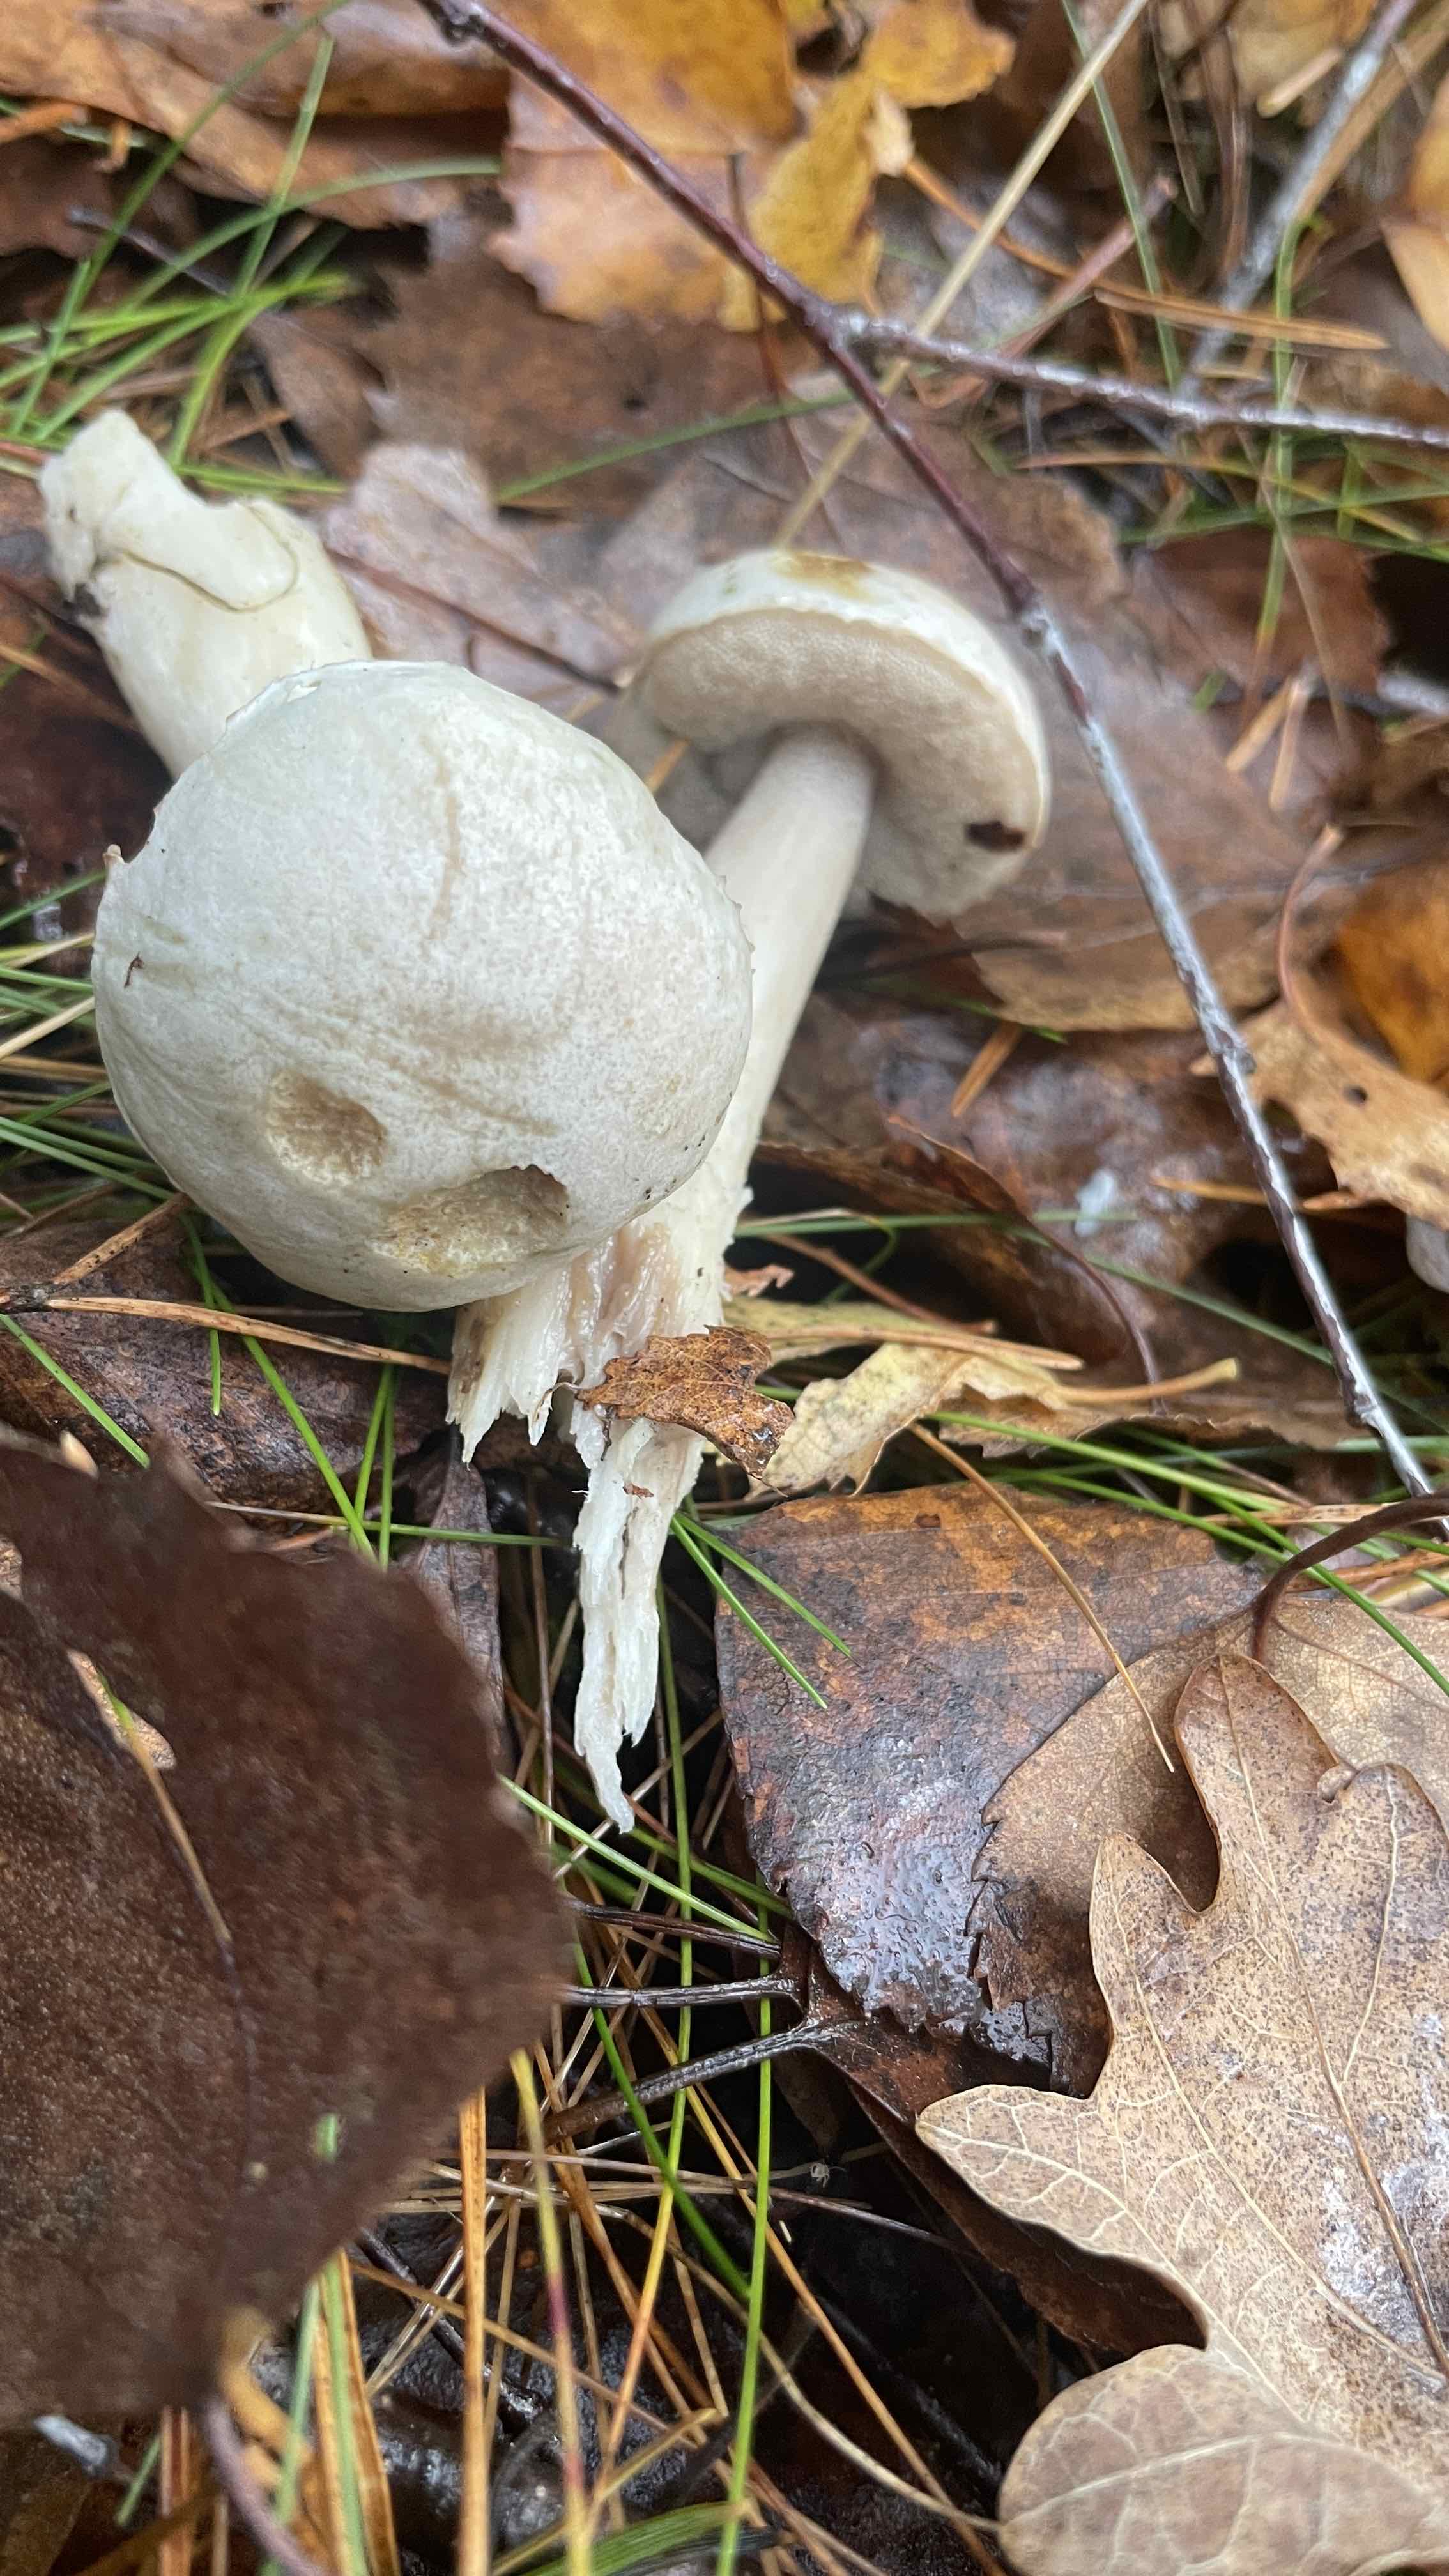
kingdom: Fungi
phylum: Basidiomycota
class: Agaricomycetes
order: Boletales
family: Boletaceae
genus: Leccinum
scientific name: Leccinum scabrum
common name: hvid skælrørhat
